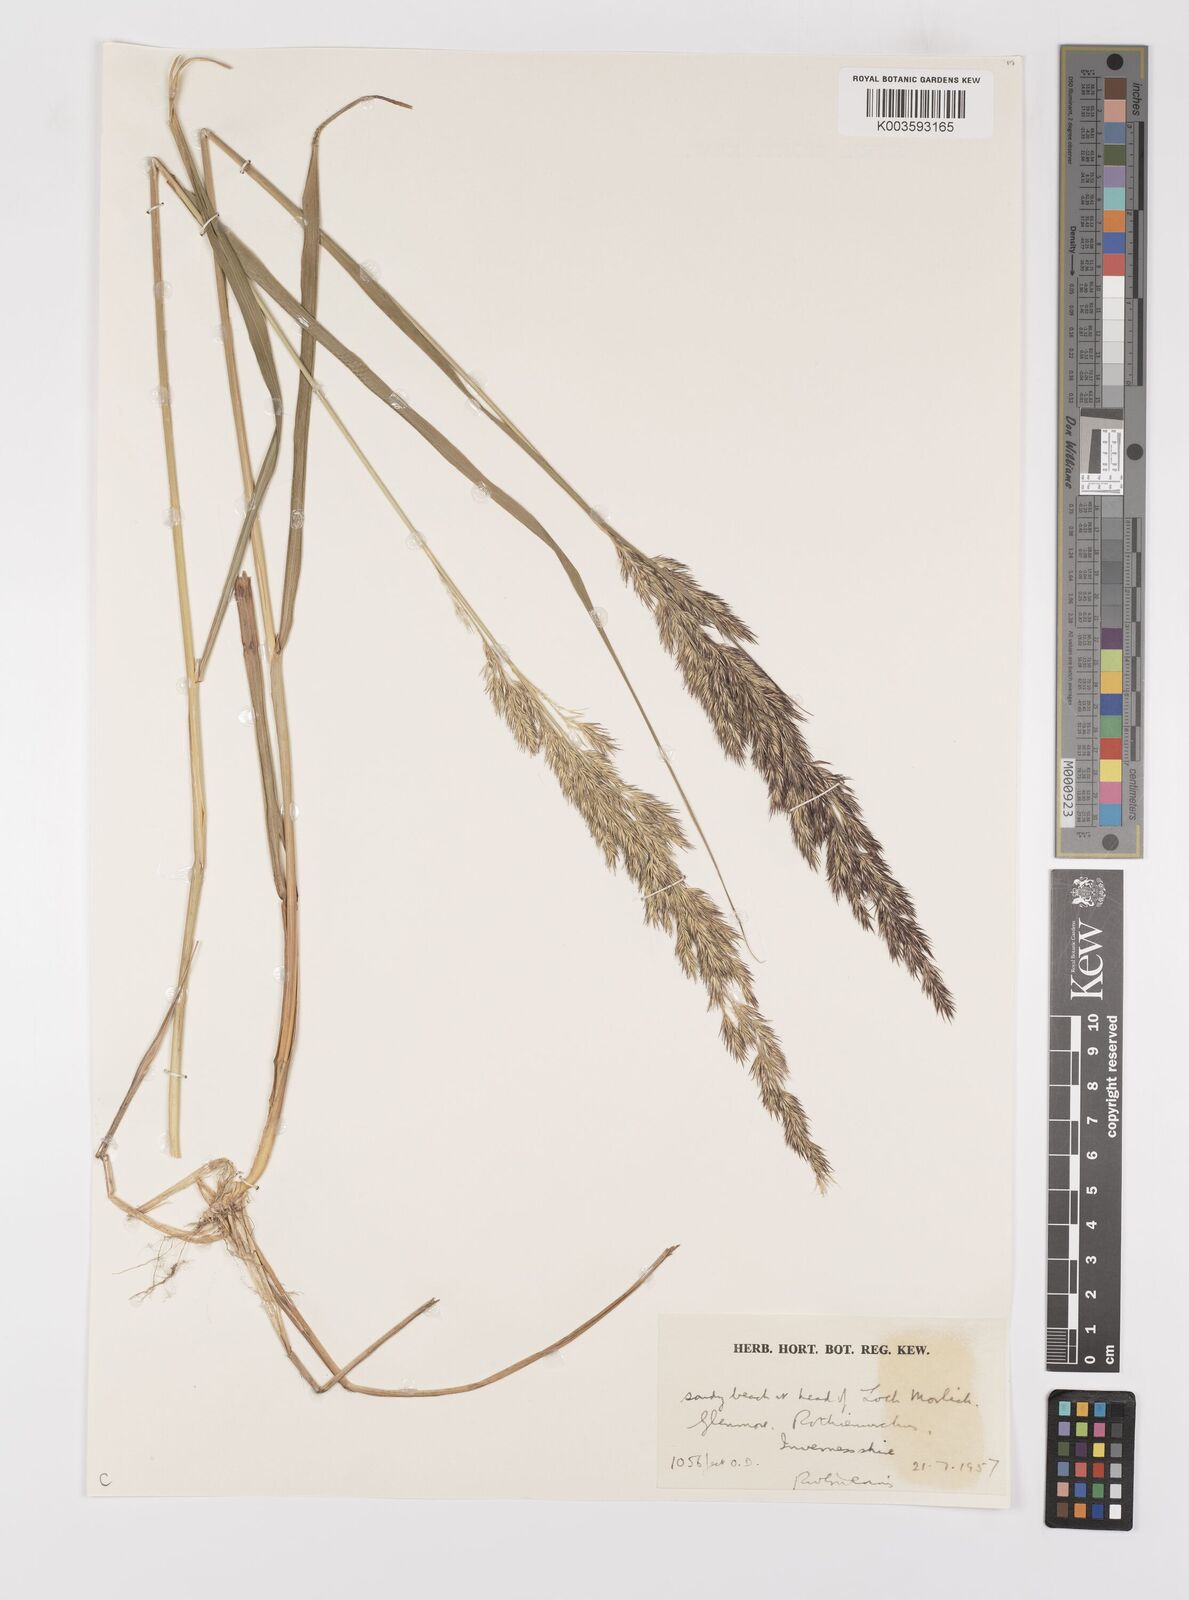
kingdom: Plantae
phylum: Tracheophyta
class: Liliopsida
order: Poales
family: Poaceae
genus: Calamagrostis
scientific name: Calamagrostis
